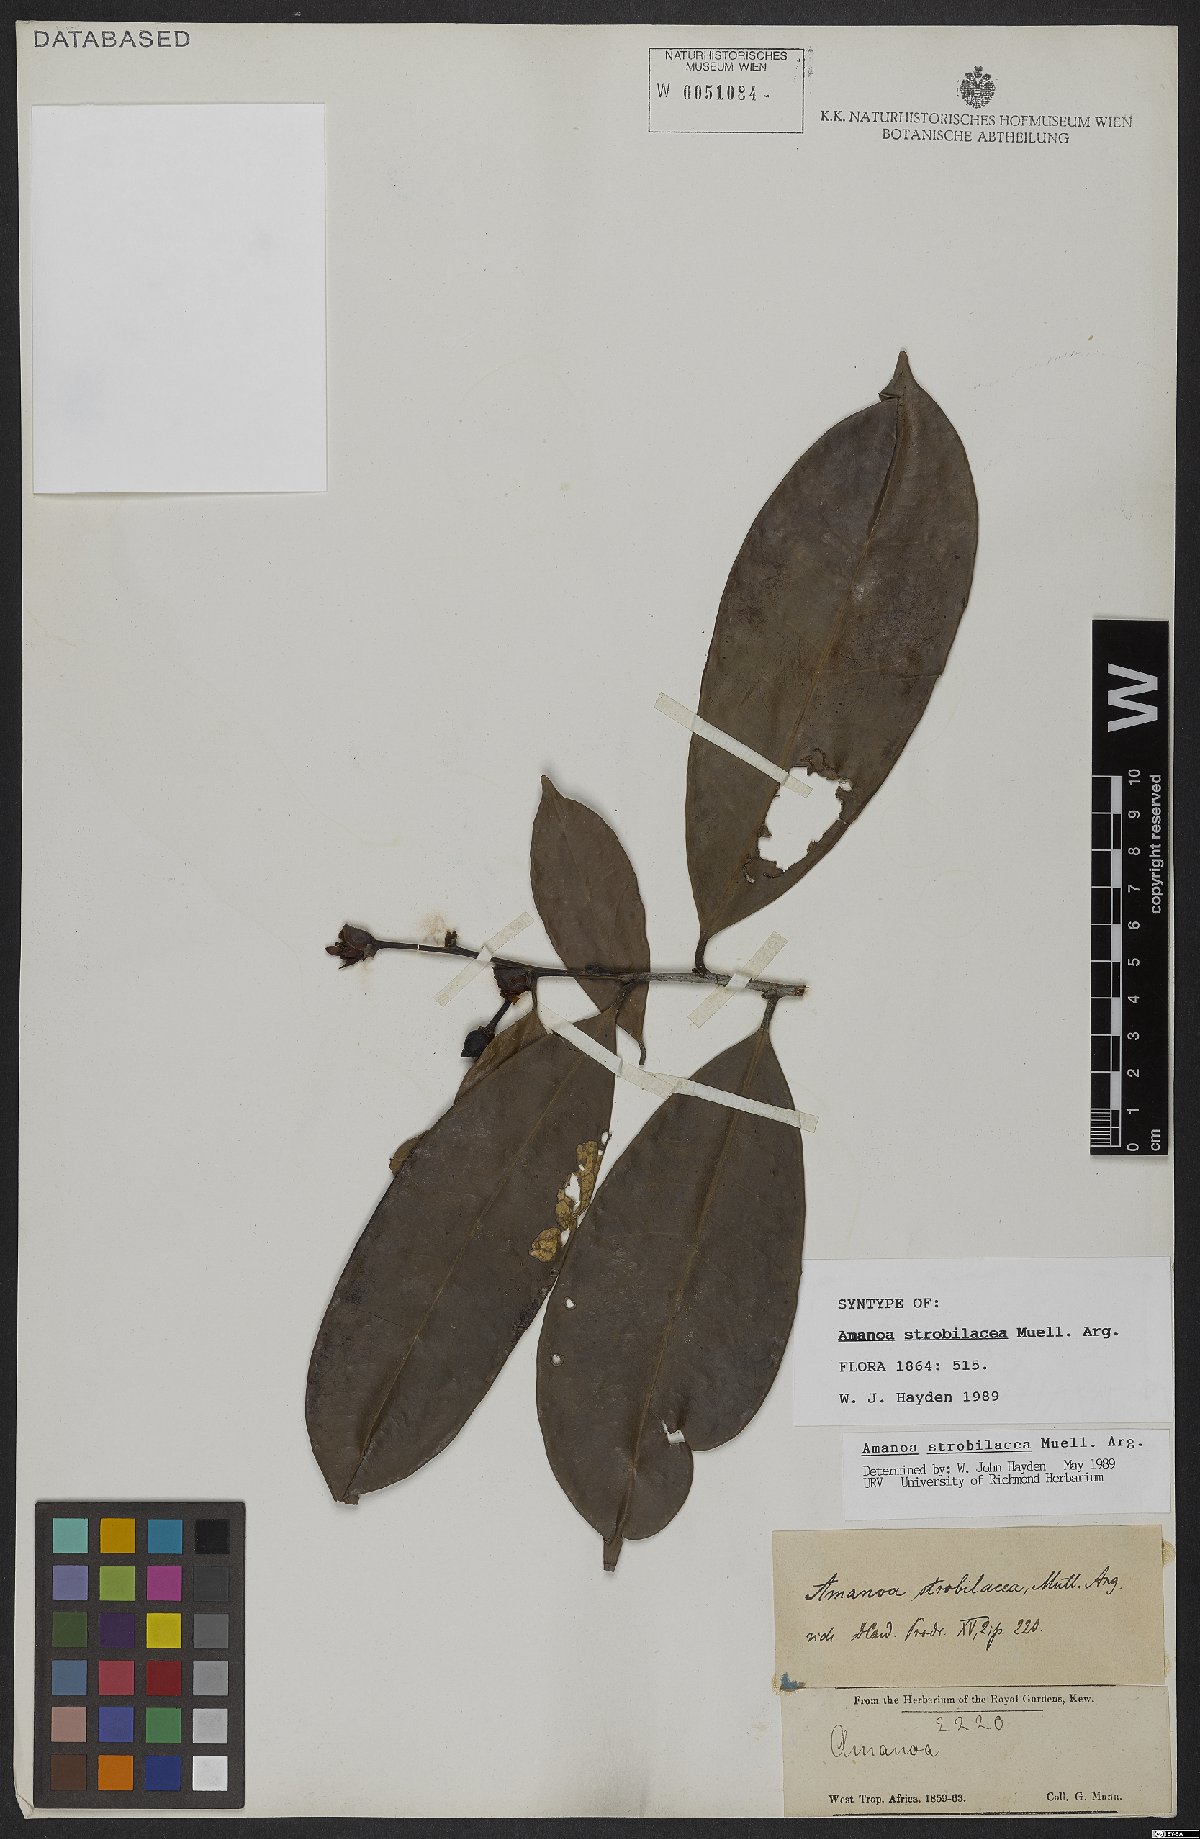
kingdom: Plantae
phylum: Tracheophyta
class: Magnoliopsida
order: Malpighiales
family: Phyllanthaceae
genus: Amanoa
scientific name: Amanoa strobilacea
